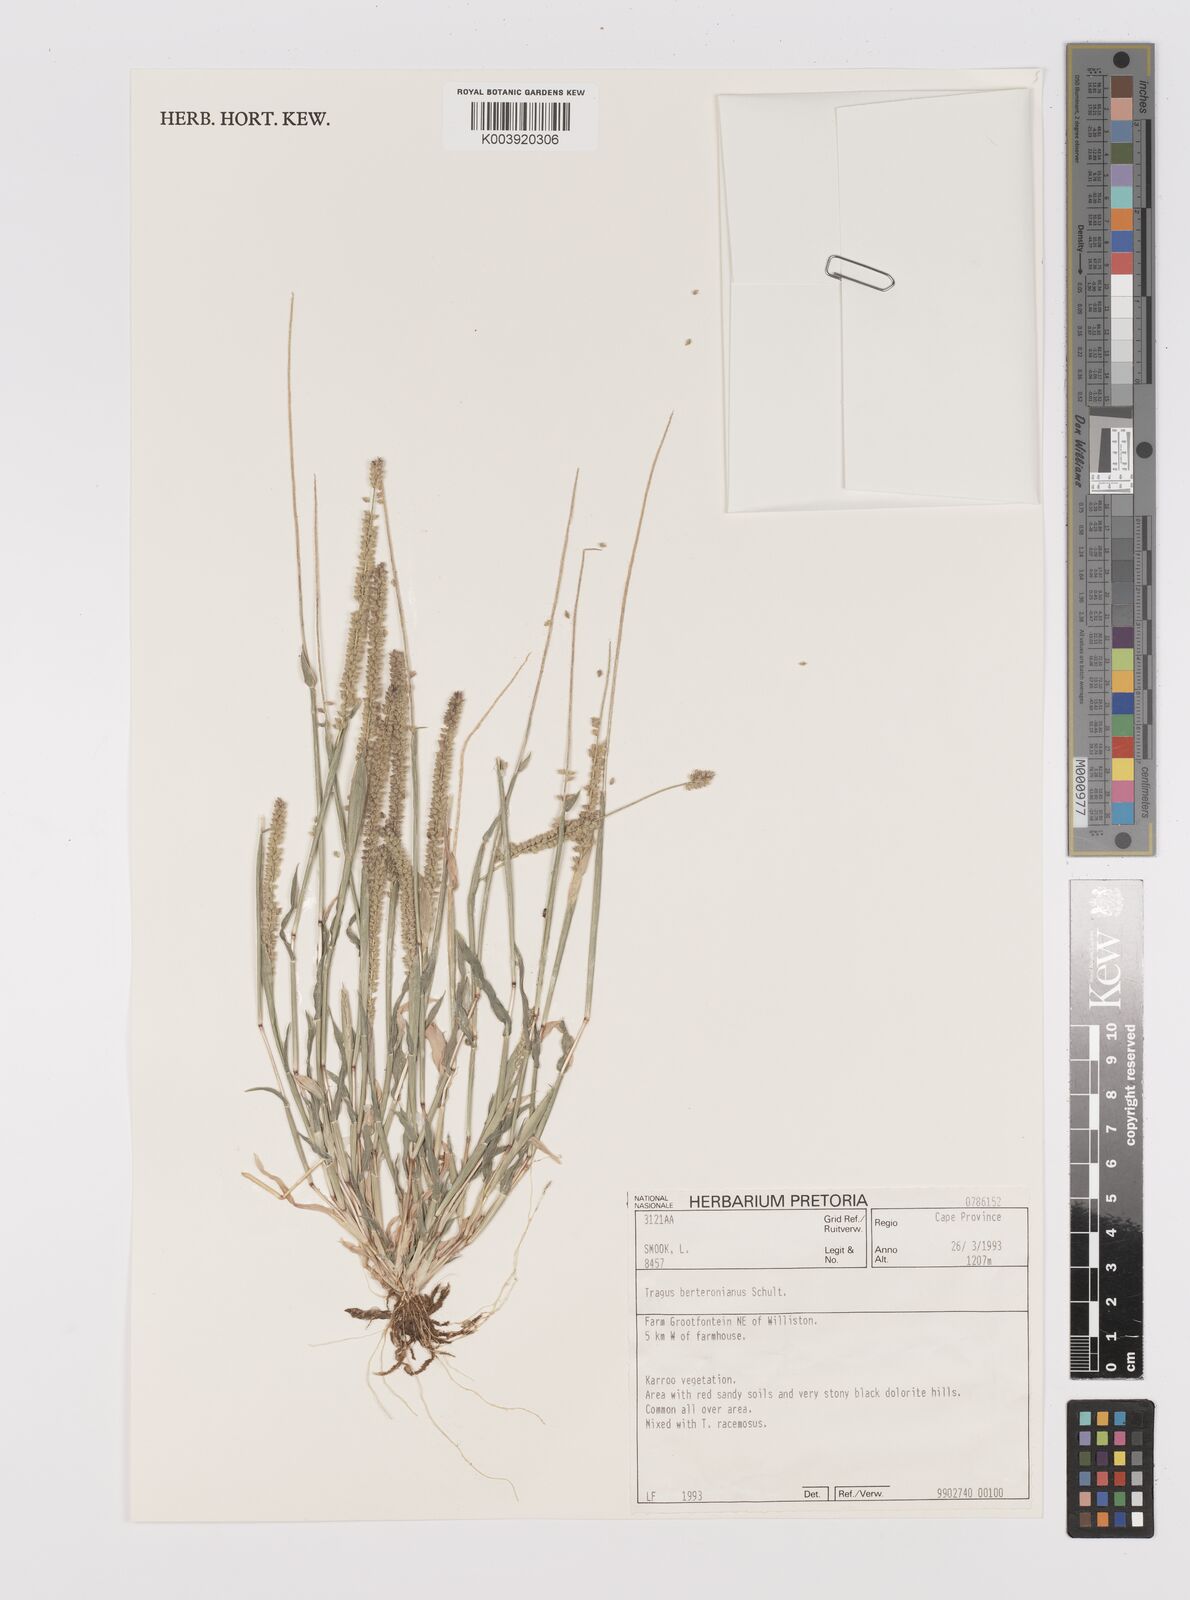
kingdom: Plantae
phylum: Tracheophyta
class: Liliopsida
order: Poales
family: Poaceae
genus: Tragus
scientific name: Tragus berteronianus
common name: African bur-grass
